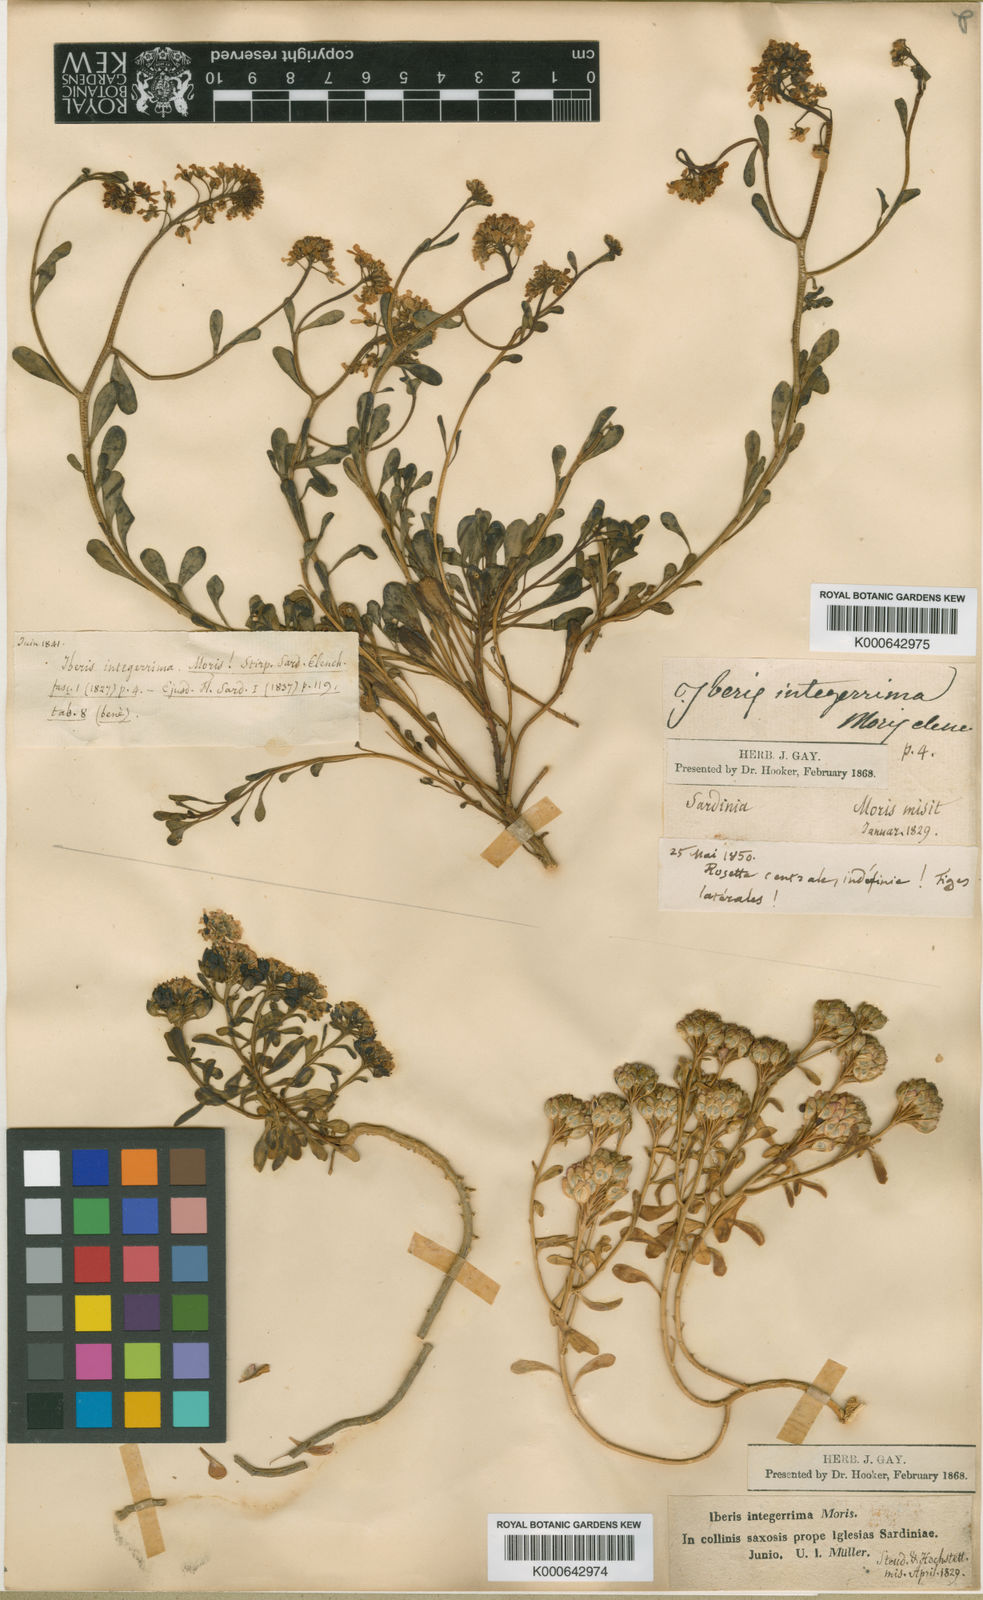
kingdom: Plantae
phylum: Tracheophyta
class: Magnoliopsida
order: Brassicales
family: Brassicaceae
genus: Iberis
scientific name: Iberis
